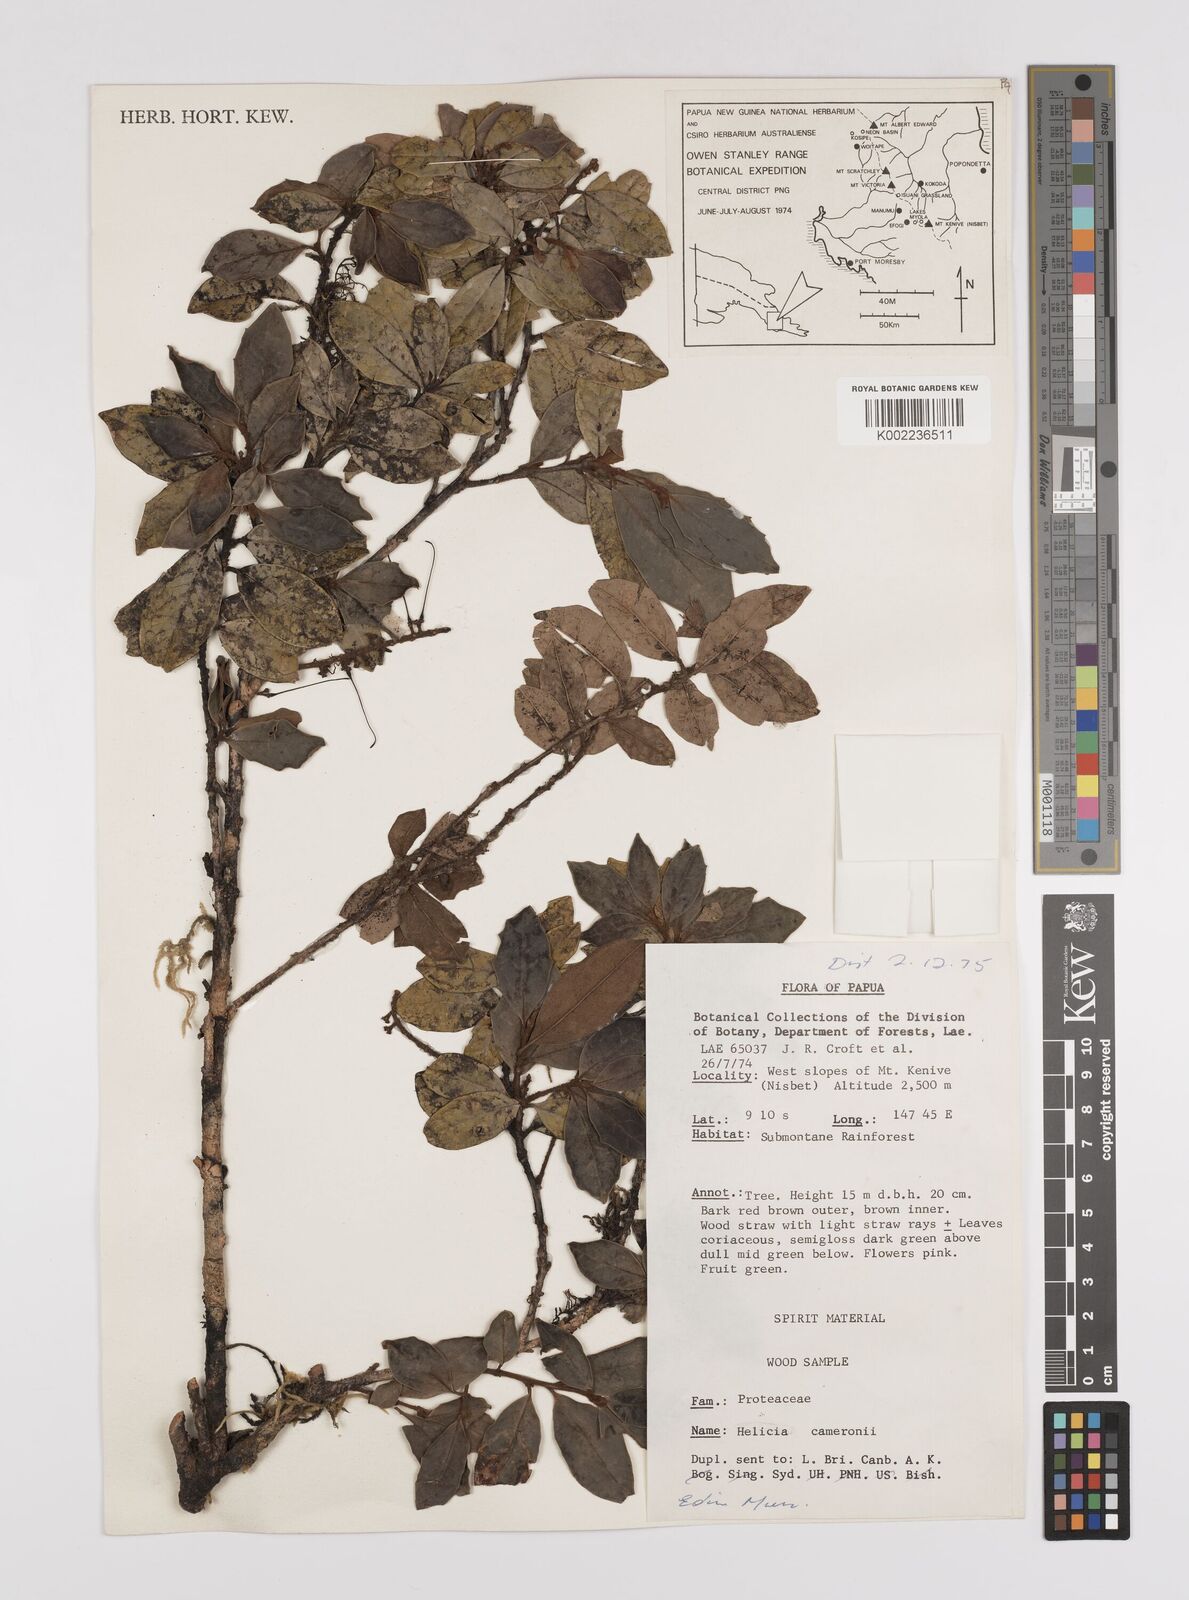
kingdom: Plantae
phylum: Tracheophyta
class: Magnoliopsida
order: Proteales
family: Proteaceae
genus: Helicia
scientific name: Helicia cameronii
